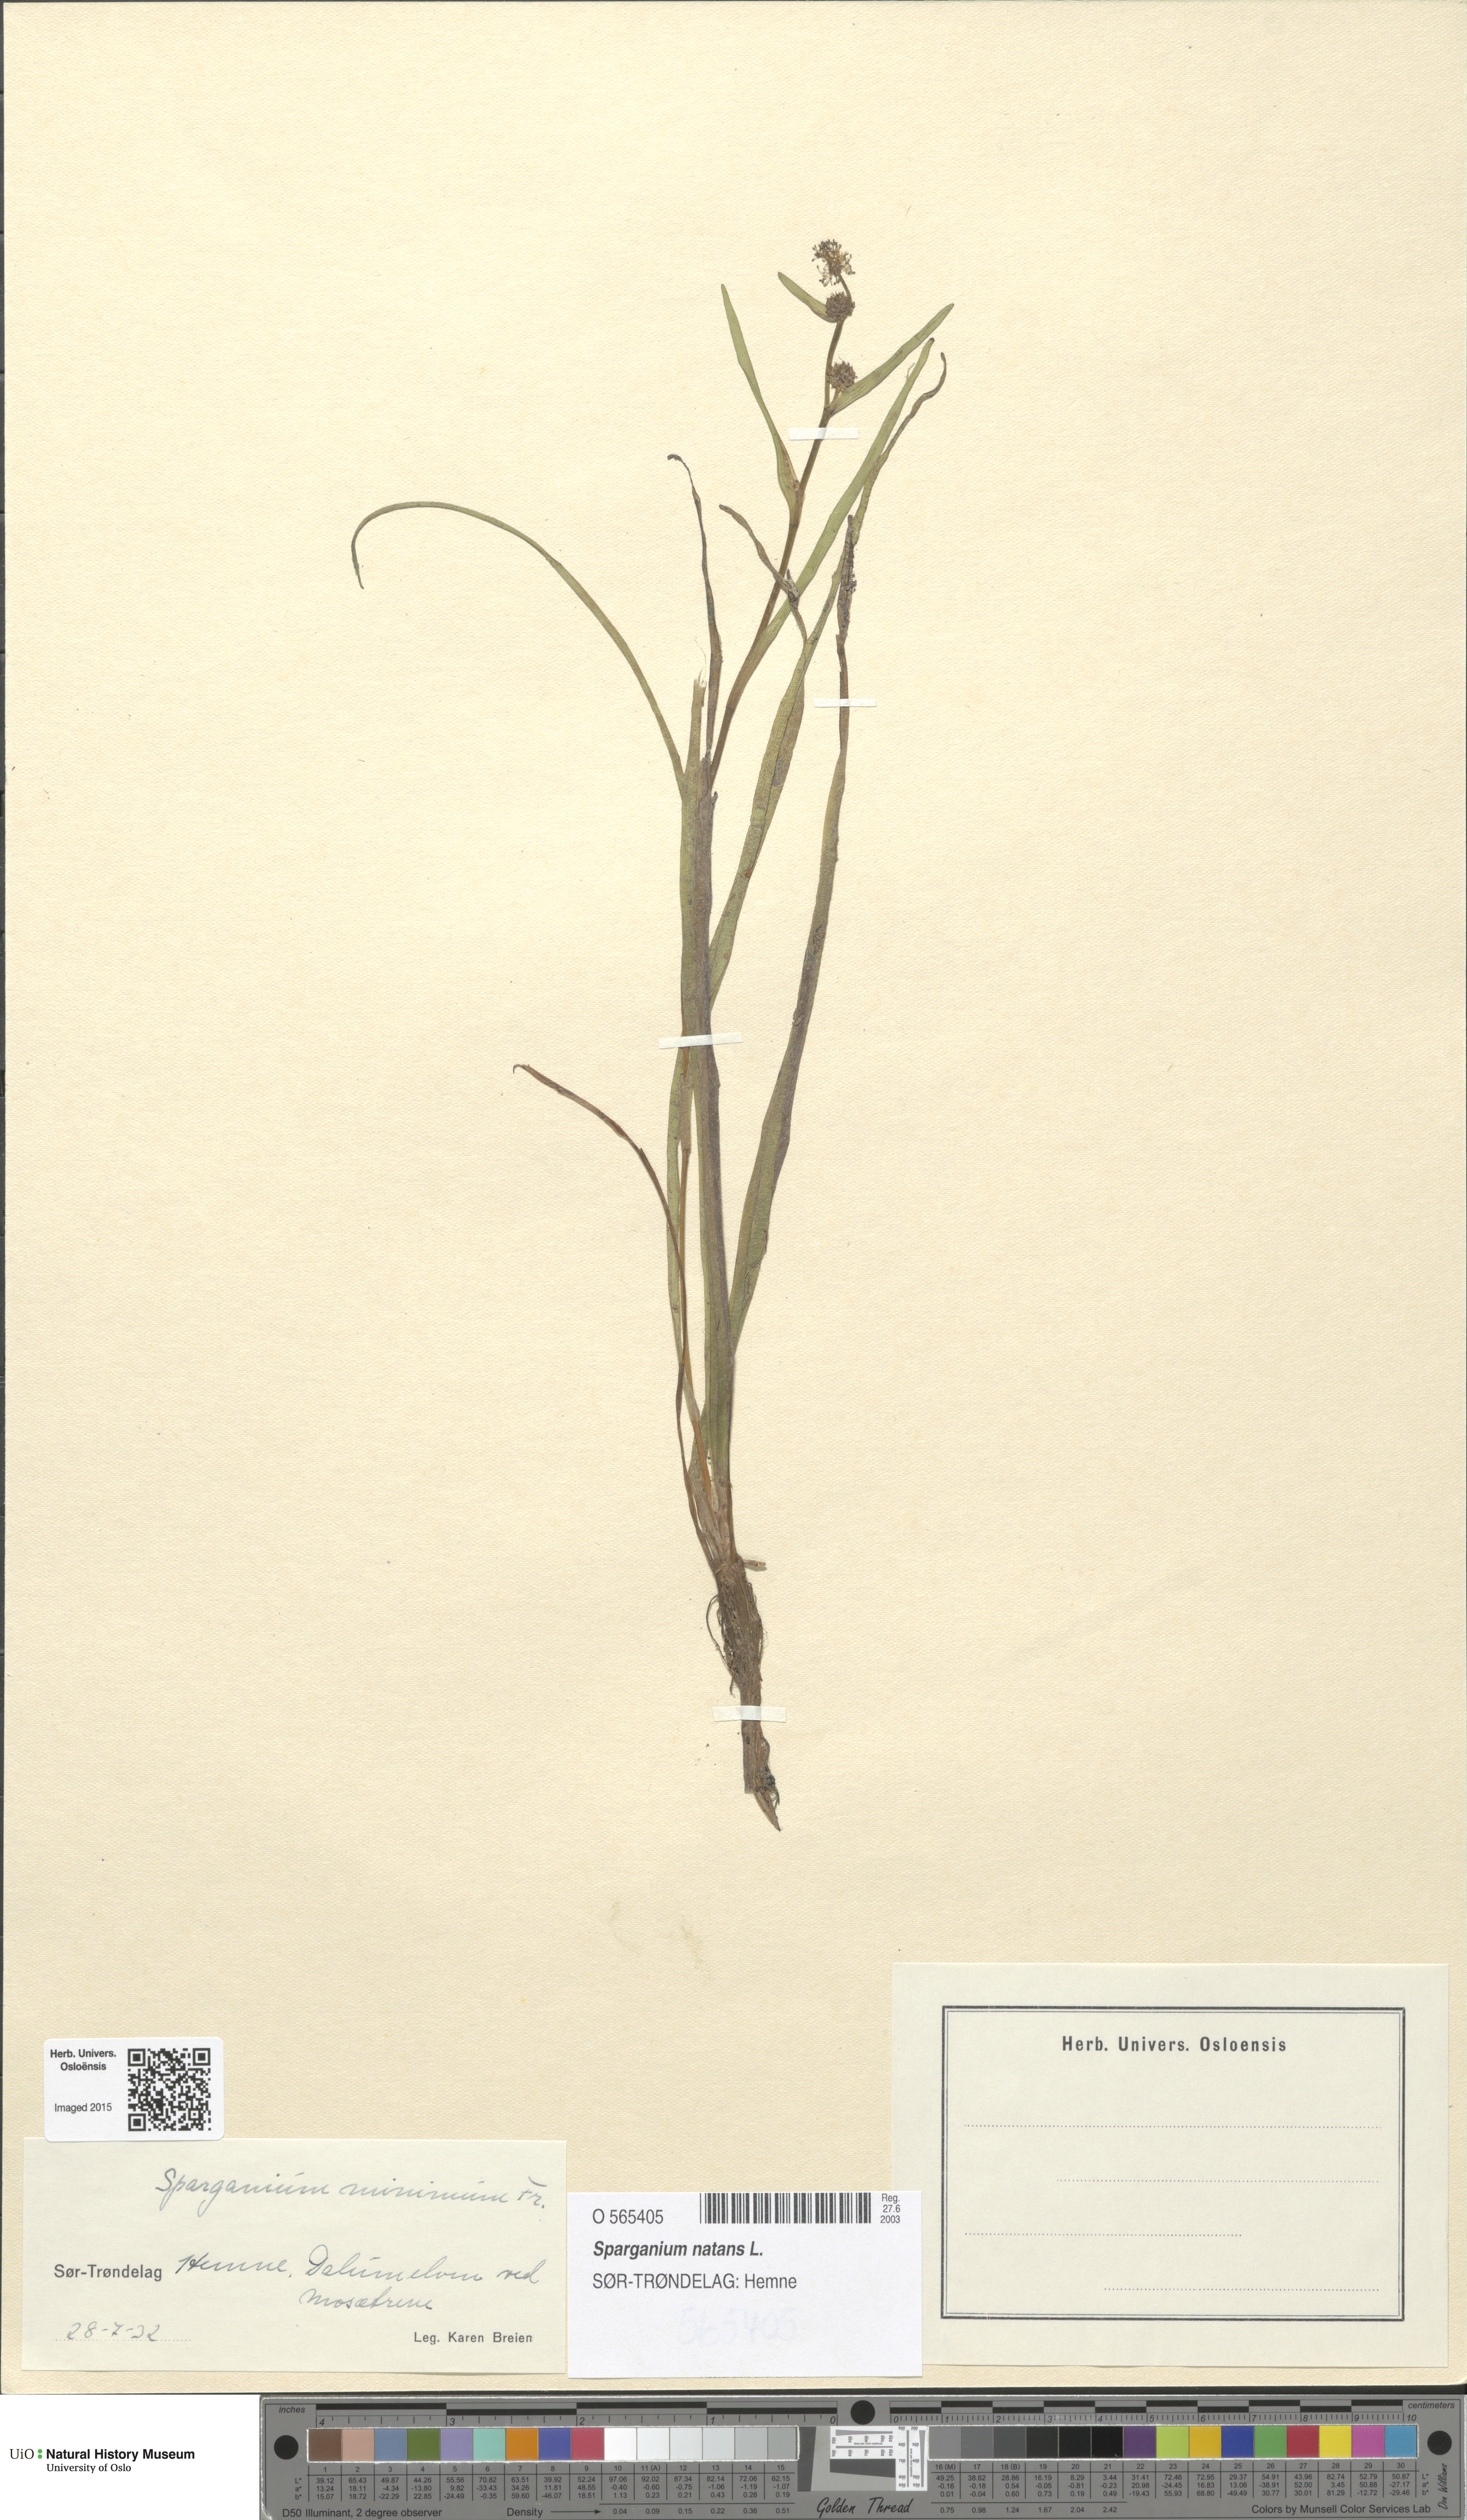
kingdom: Plantae
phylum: Tracheophyta
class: Liliopsida
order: Poales
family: Typhaceae
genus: Sparganium
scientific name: Sparganium natans
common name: Least bur-reed
